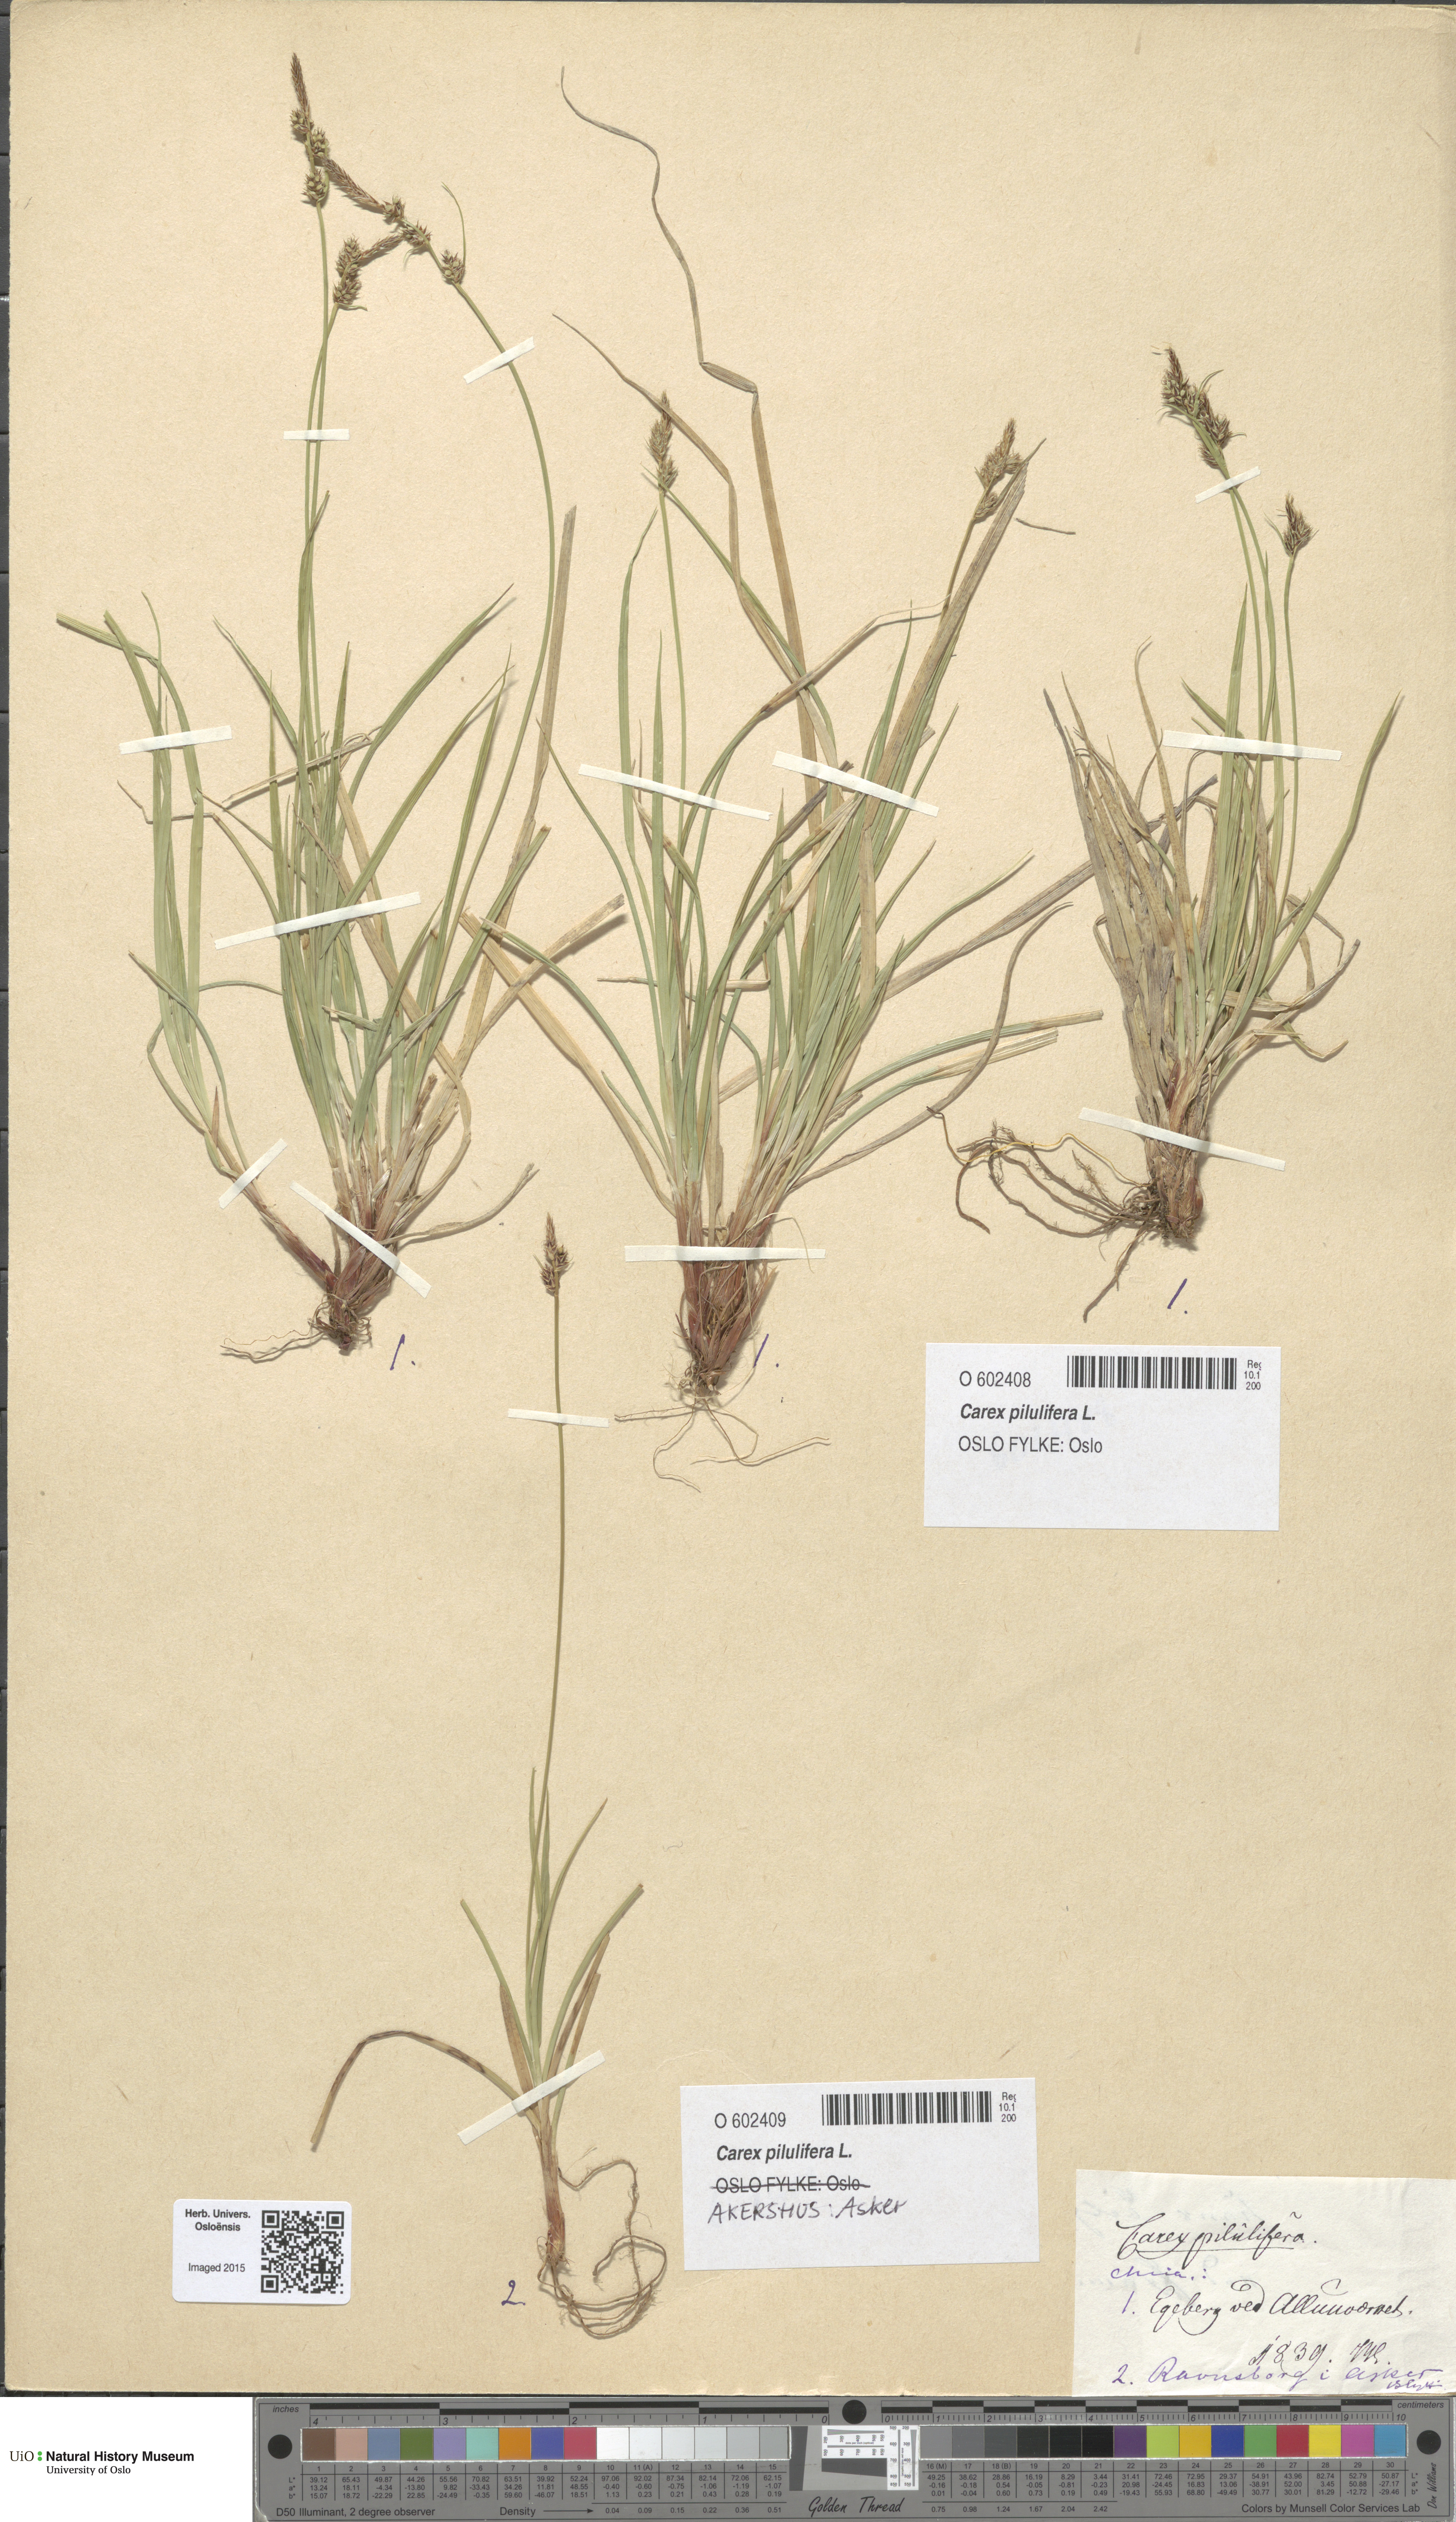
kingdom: Plantae
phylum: Tracheophyta
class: Liliopsida
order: Poales
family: Cyperaceae
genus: Carex
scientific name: Carex pilulifera
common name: Pill sedge
